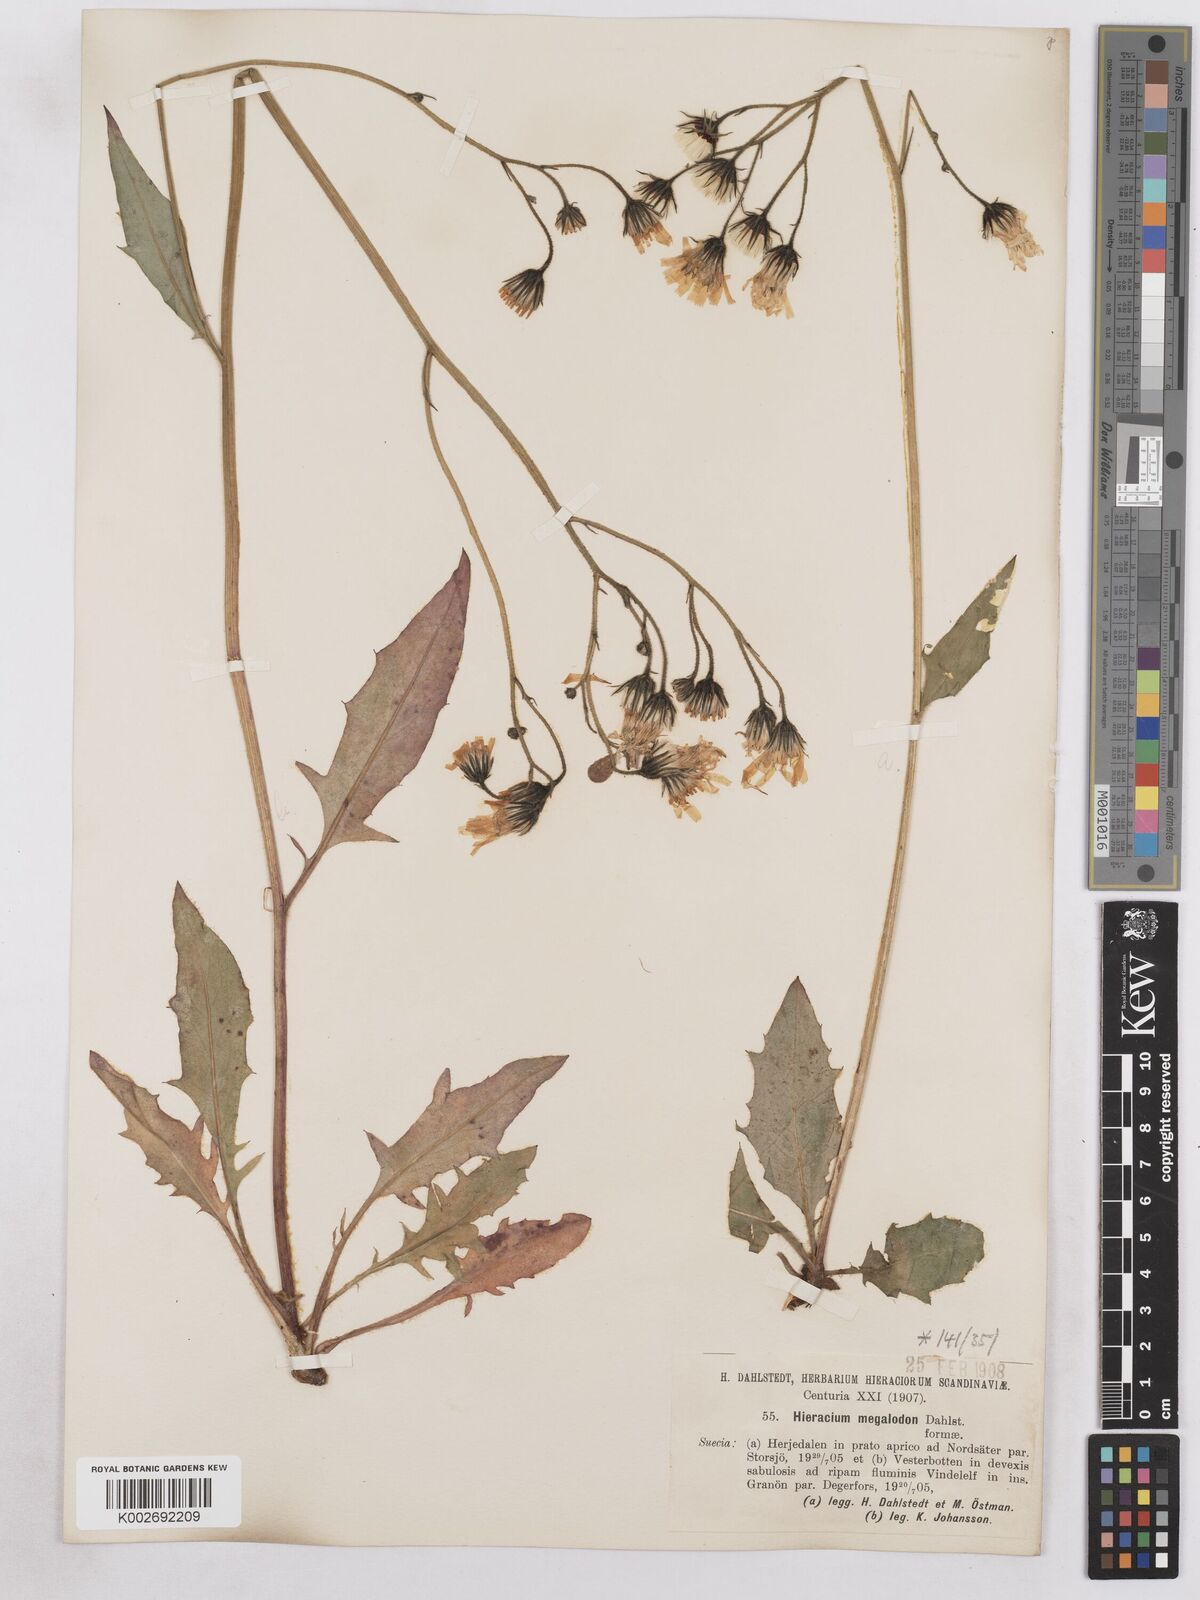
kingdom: Plantae
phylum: Tracheophyta
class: Magnoliopsida
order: Asterales
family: Asteraceae
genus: Hieracium
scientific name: Hieracium diaphanoides
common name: Fine-bracted hawkweed
